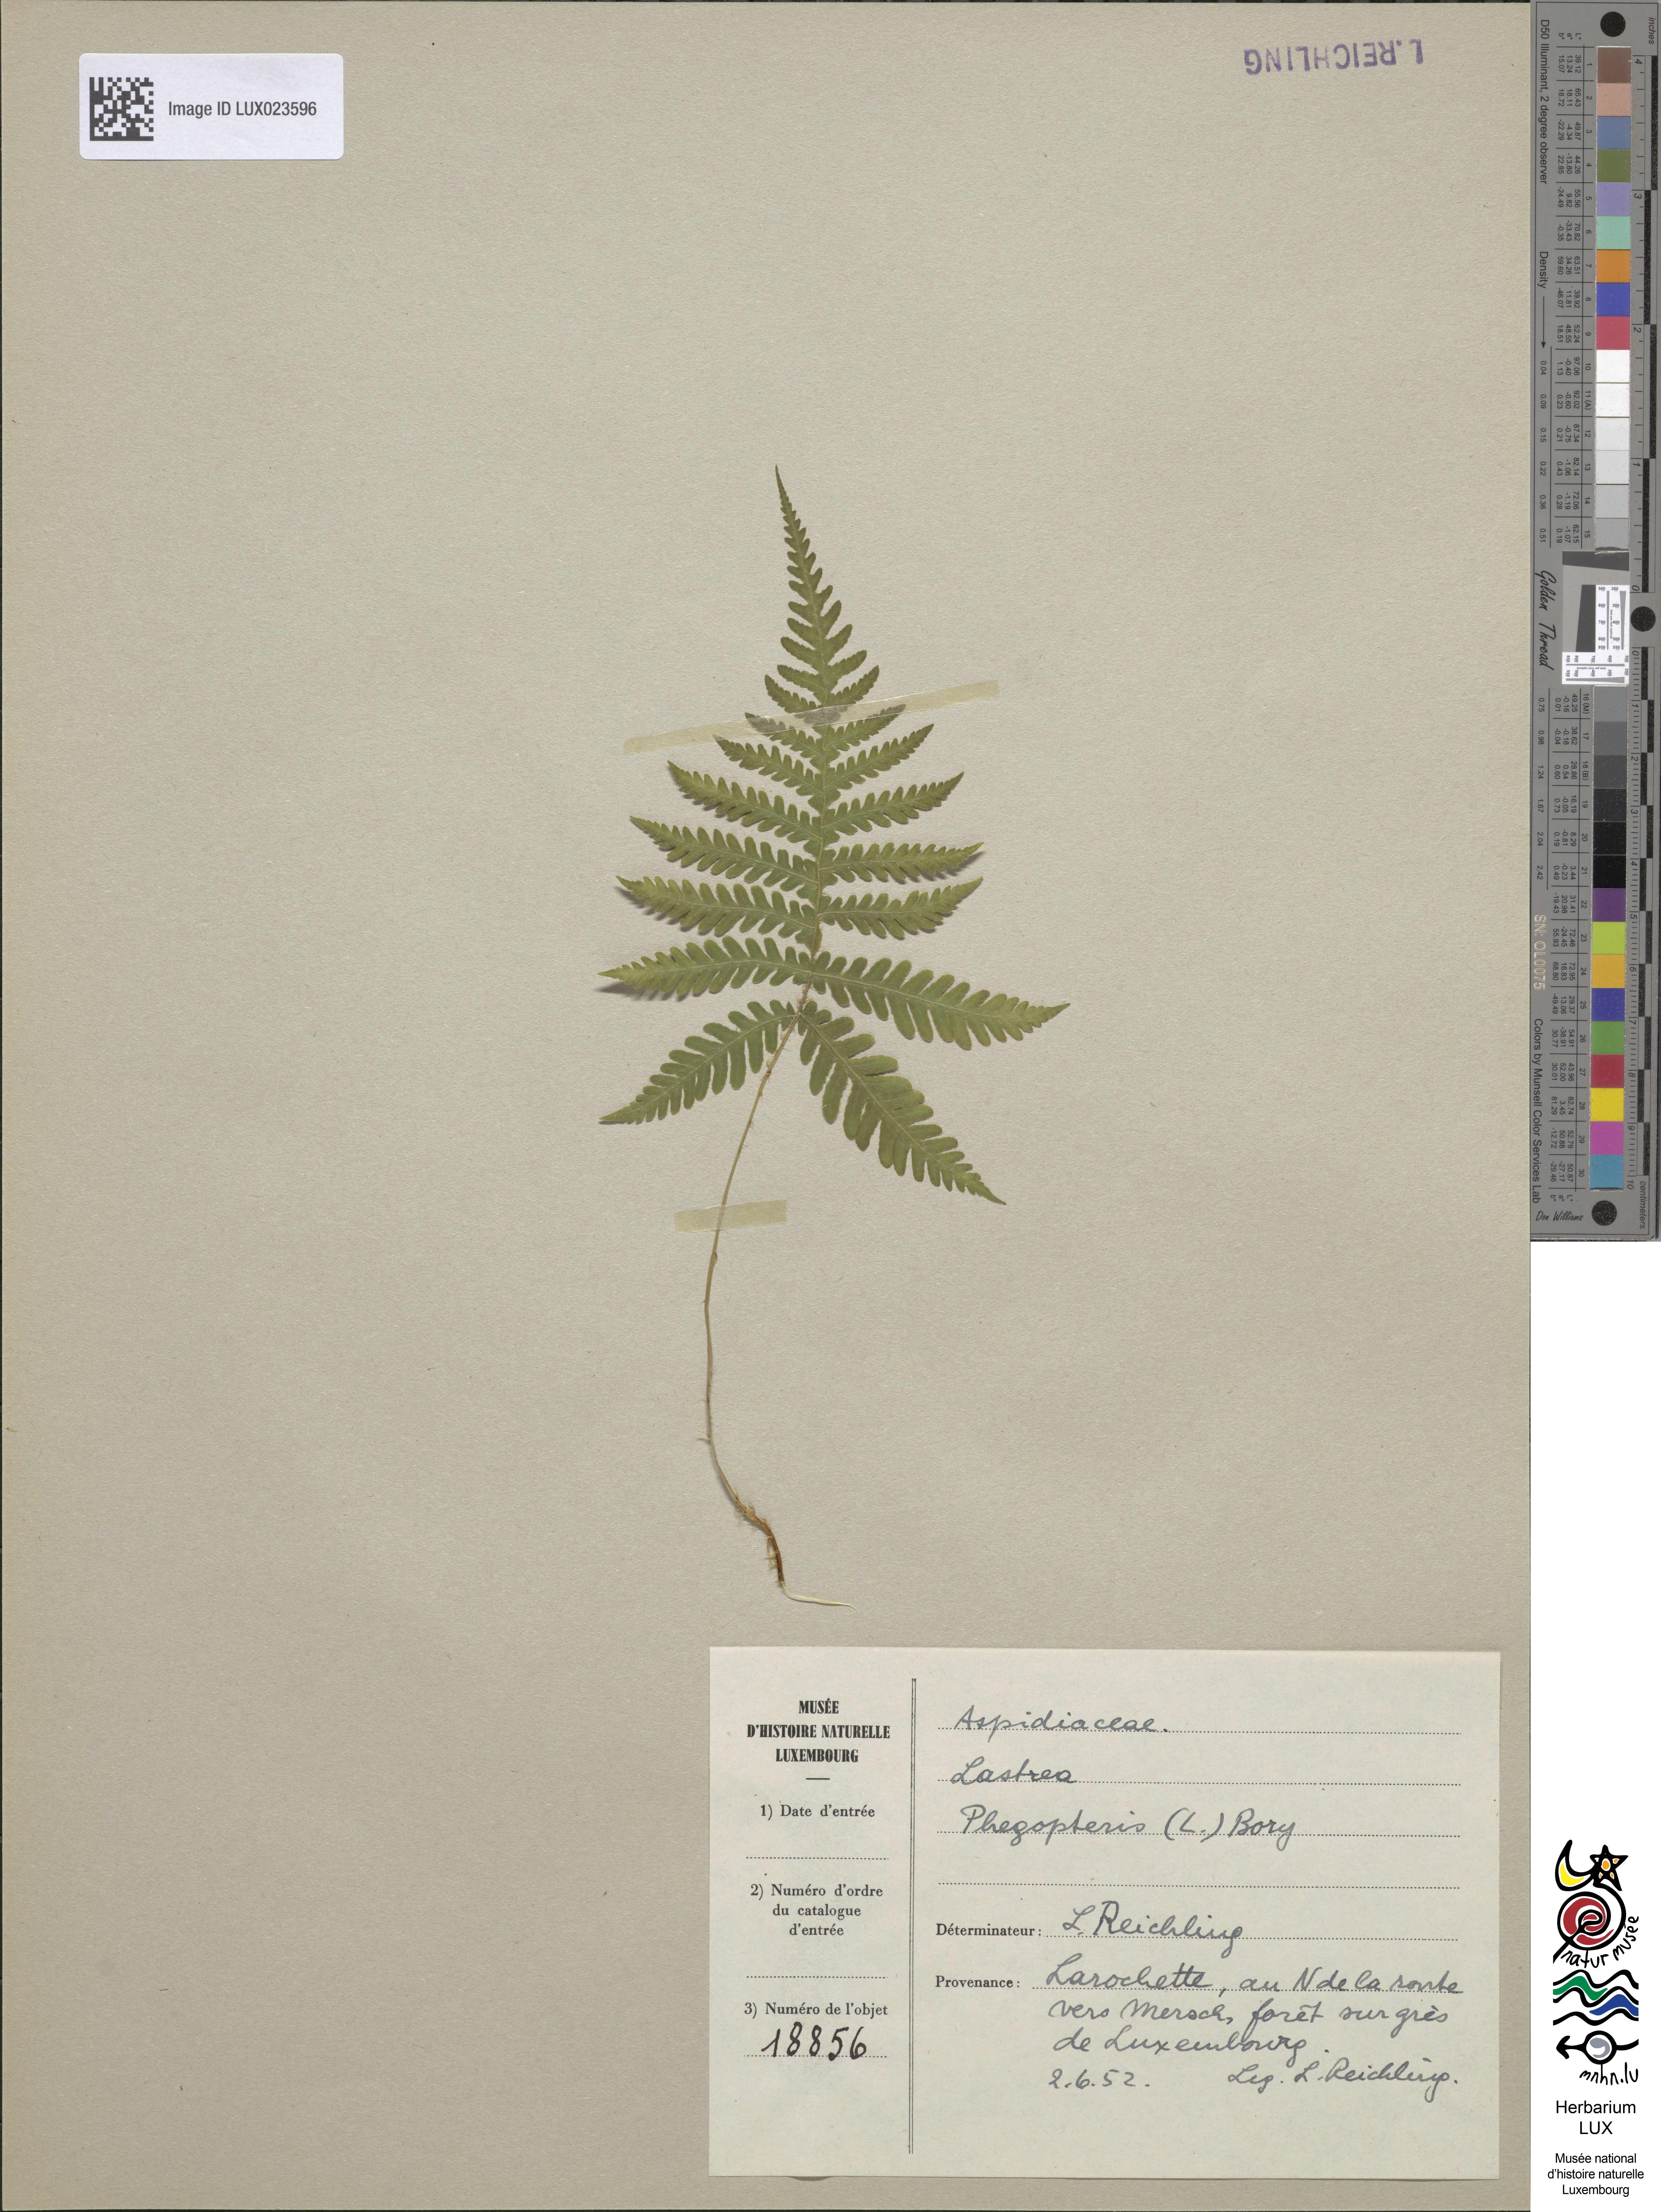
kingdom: Plantae
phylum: Tracheophyta
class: Polypodiopsida
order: Polypodiales
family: Thelypteridaceae
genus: Phegopteris
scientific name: Phegopteris connectilis
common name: Beech fern
